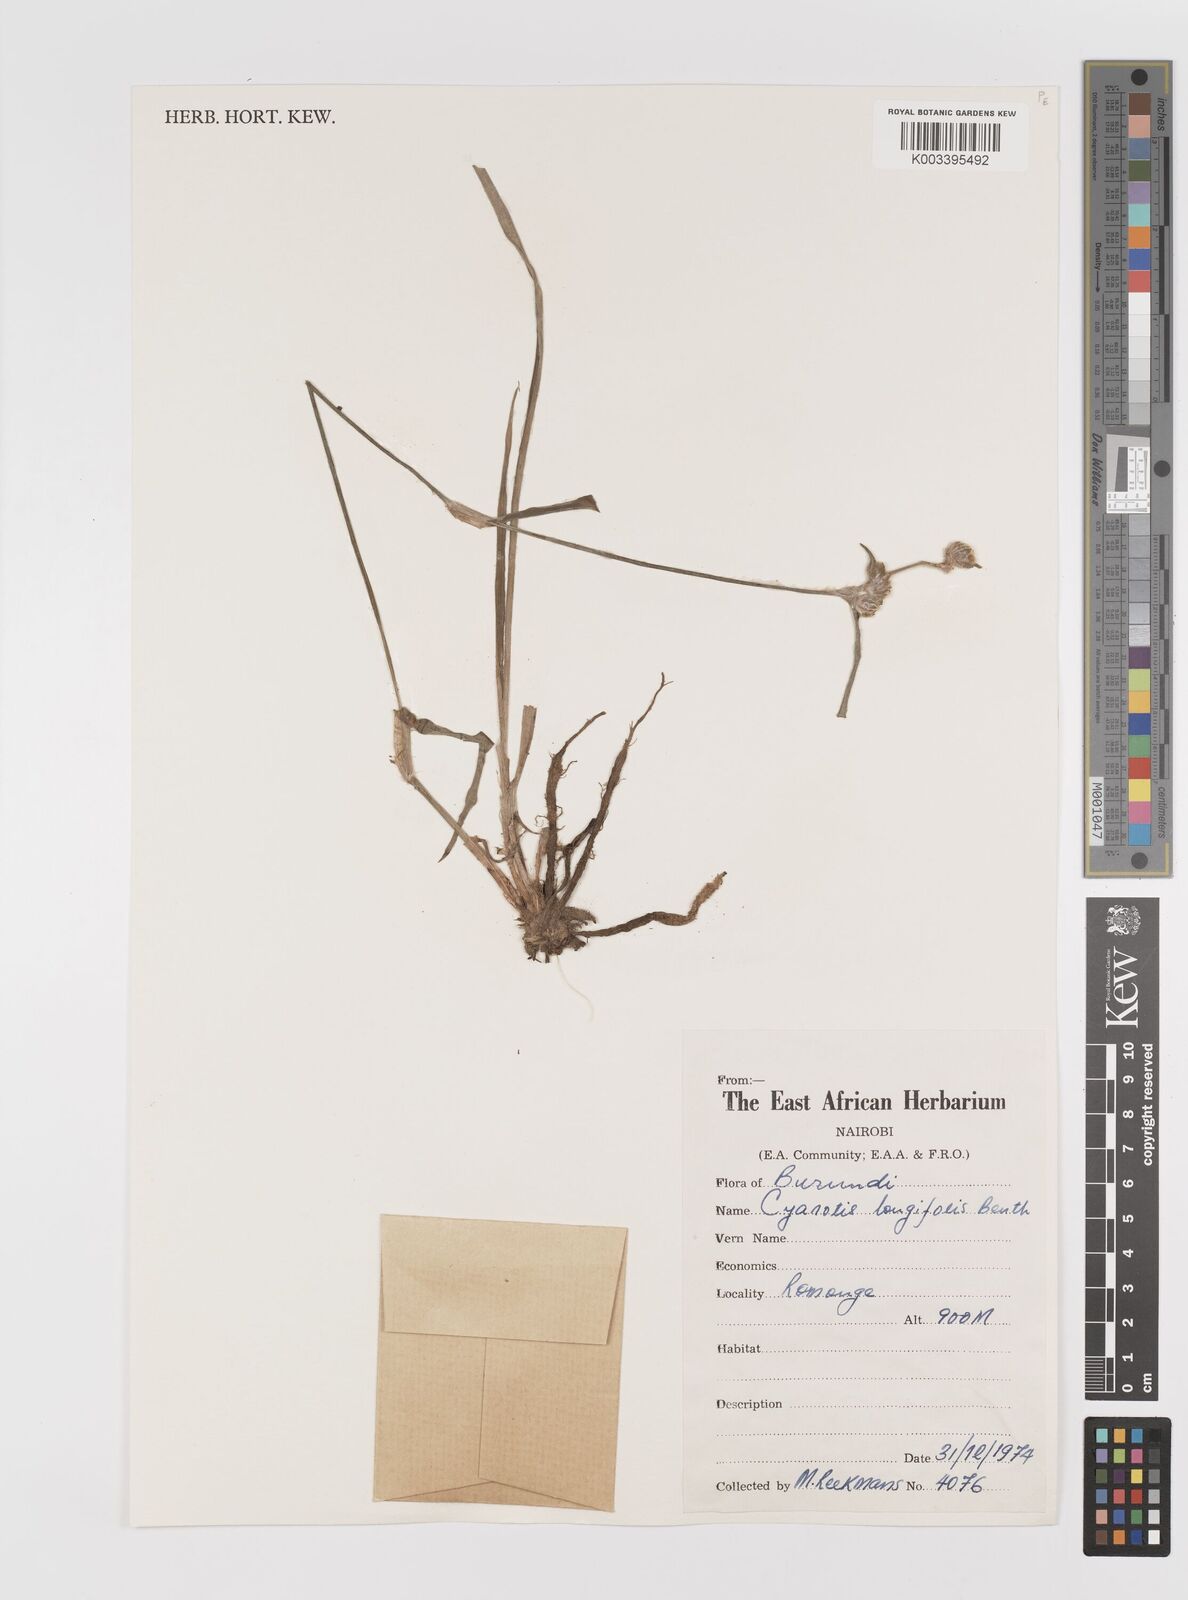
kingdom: Plantae
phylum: Tracheophyta
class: Liliopsida
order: Commelinales
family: Commelinaceae
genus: Cyanotis
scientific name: Cyanotis longifolia
